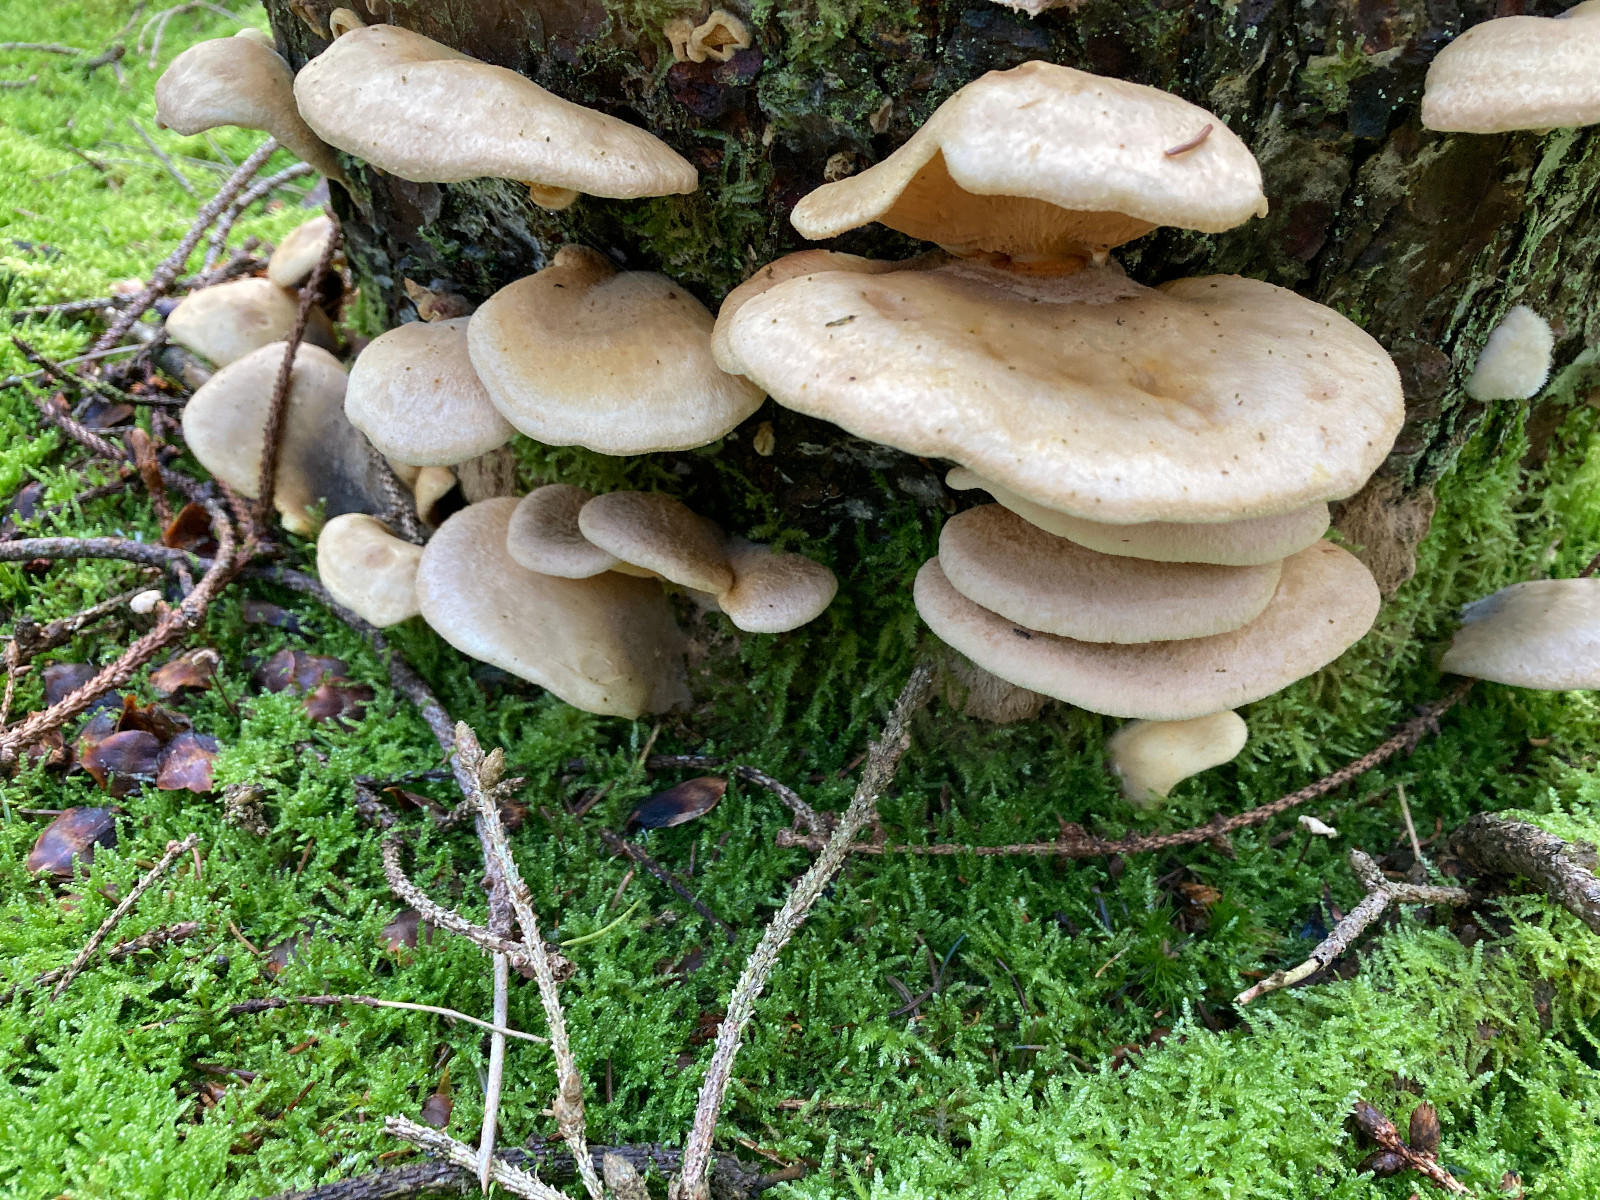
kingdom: Fungi
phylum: Basidiomycota
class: Agaricomycetes
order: Boletales
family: Tapinellaceae
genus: Tapinella
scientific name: Tapinella panuoides
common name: tømmer-viftesvamp
